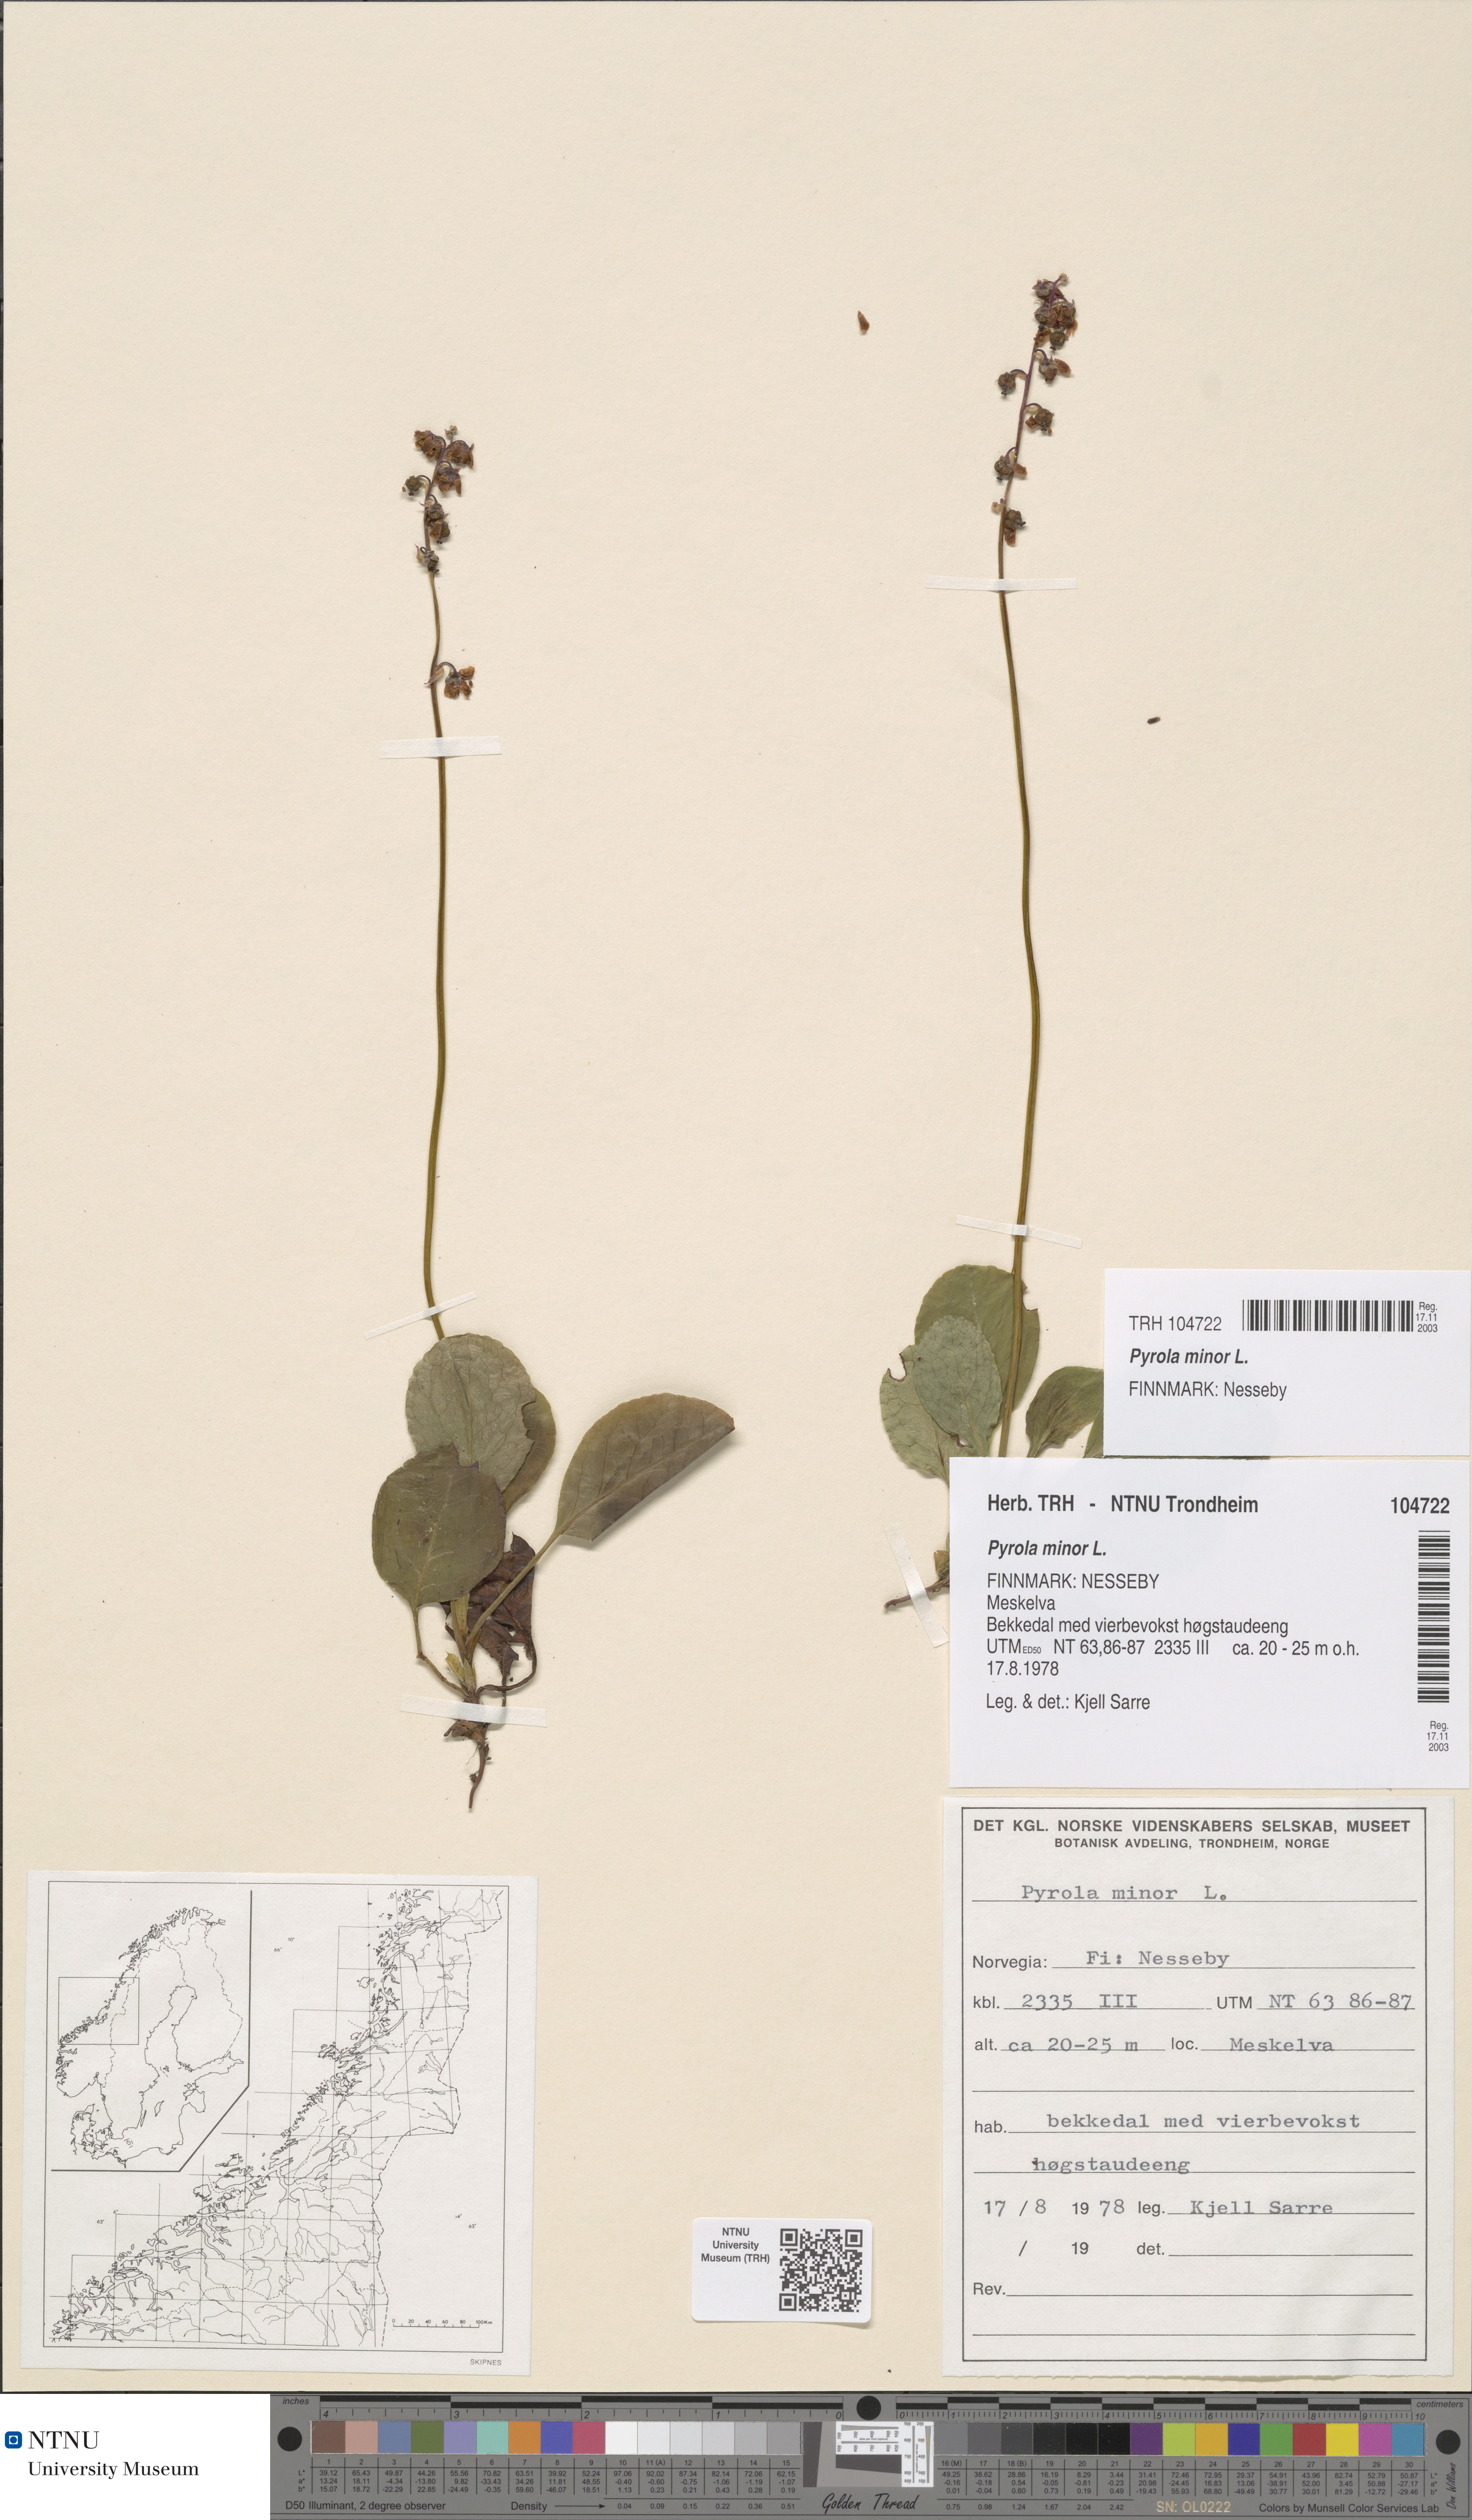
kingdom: Plantae
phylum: Tracheophyta
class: Magnoliopsida
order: Ericales
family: Ericaceae
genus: Pyrola
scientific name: Pyrola minor
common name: Common wintergreen
